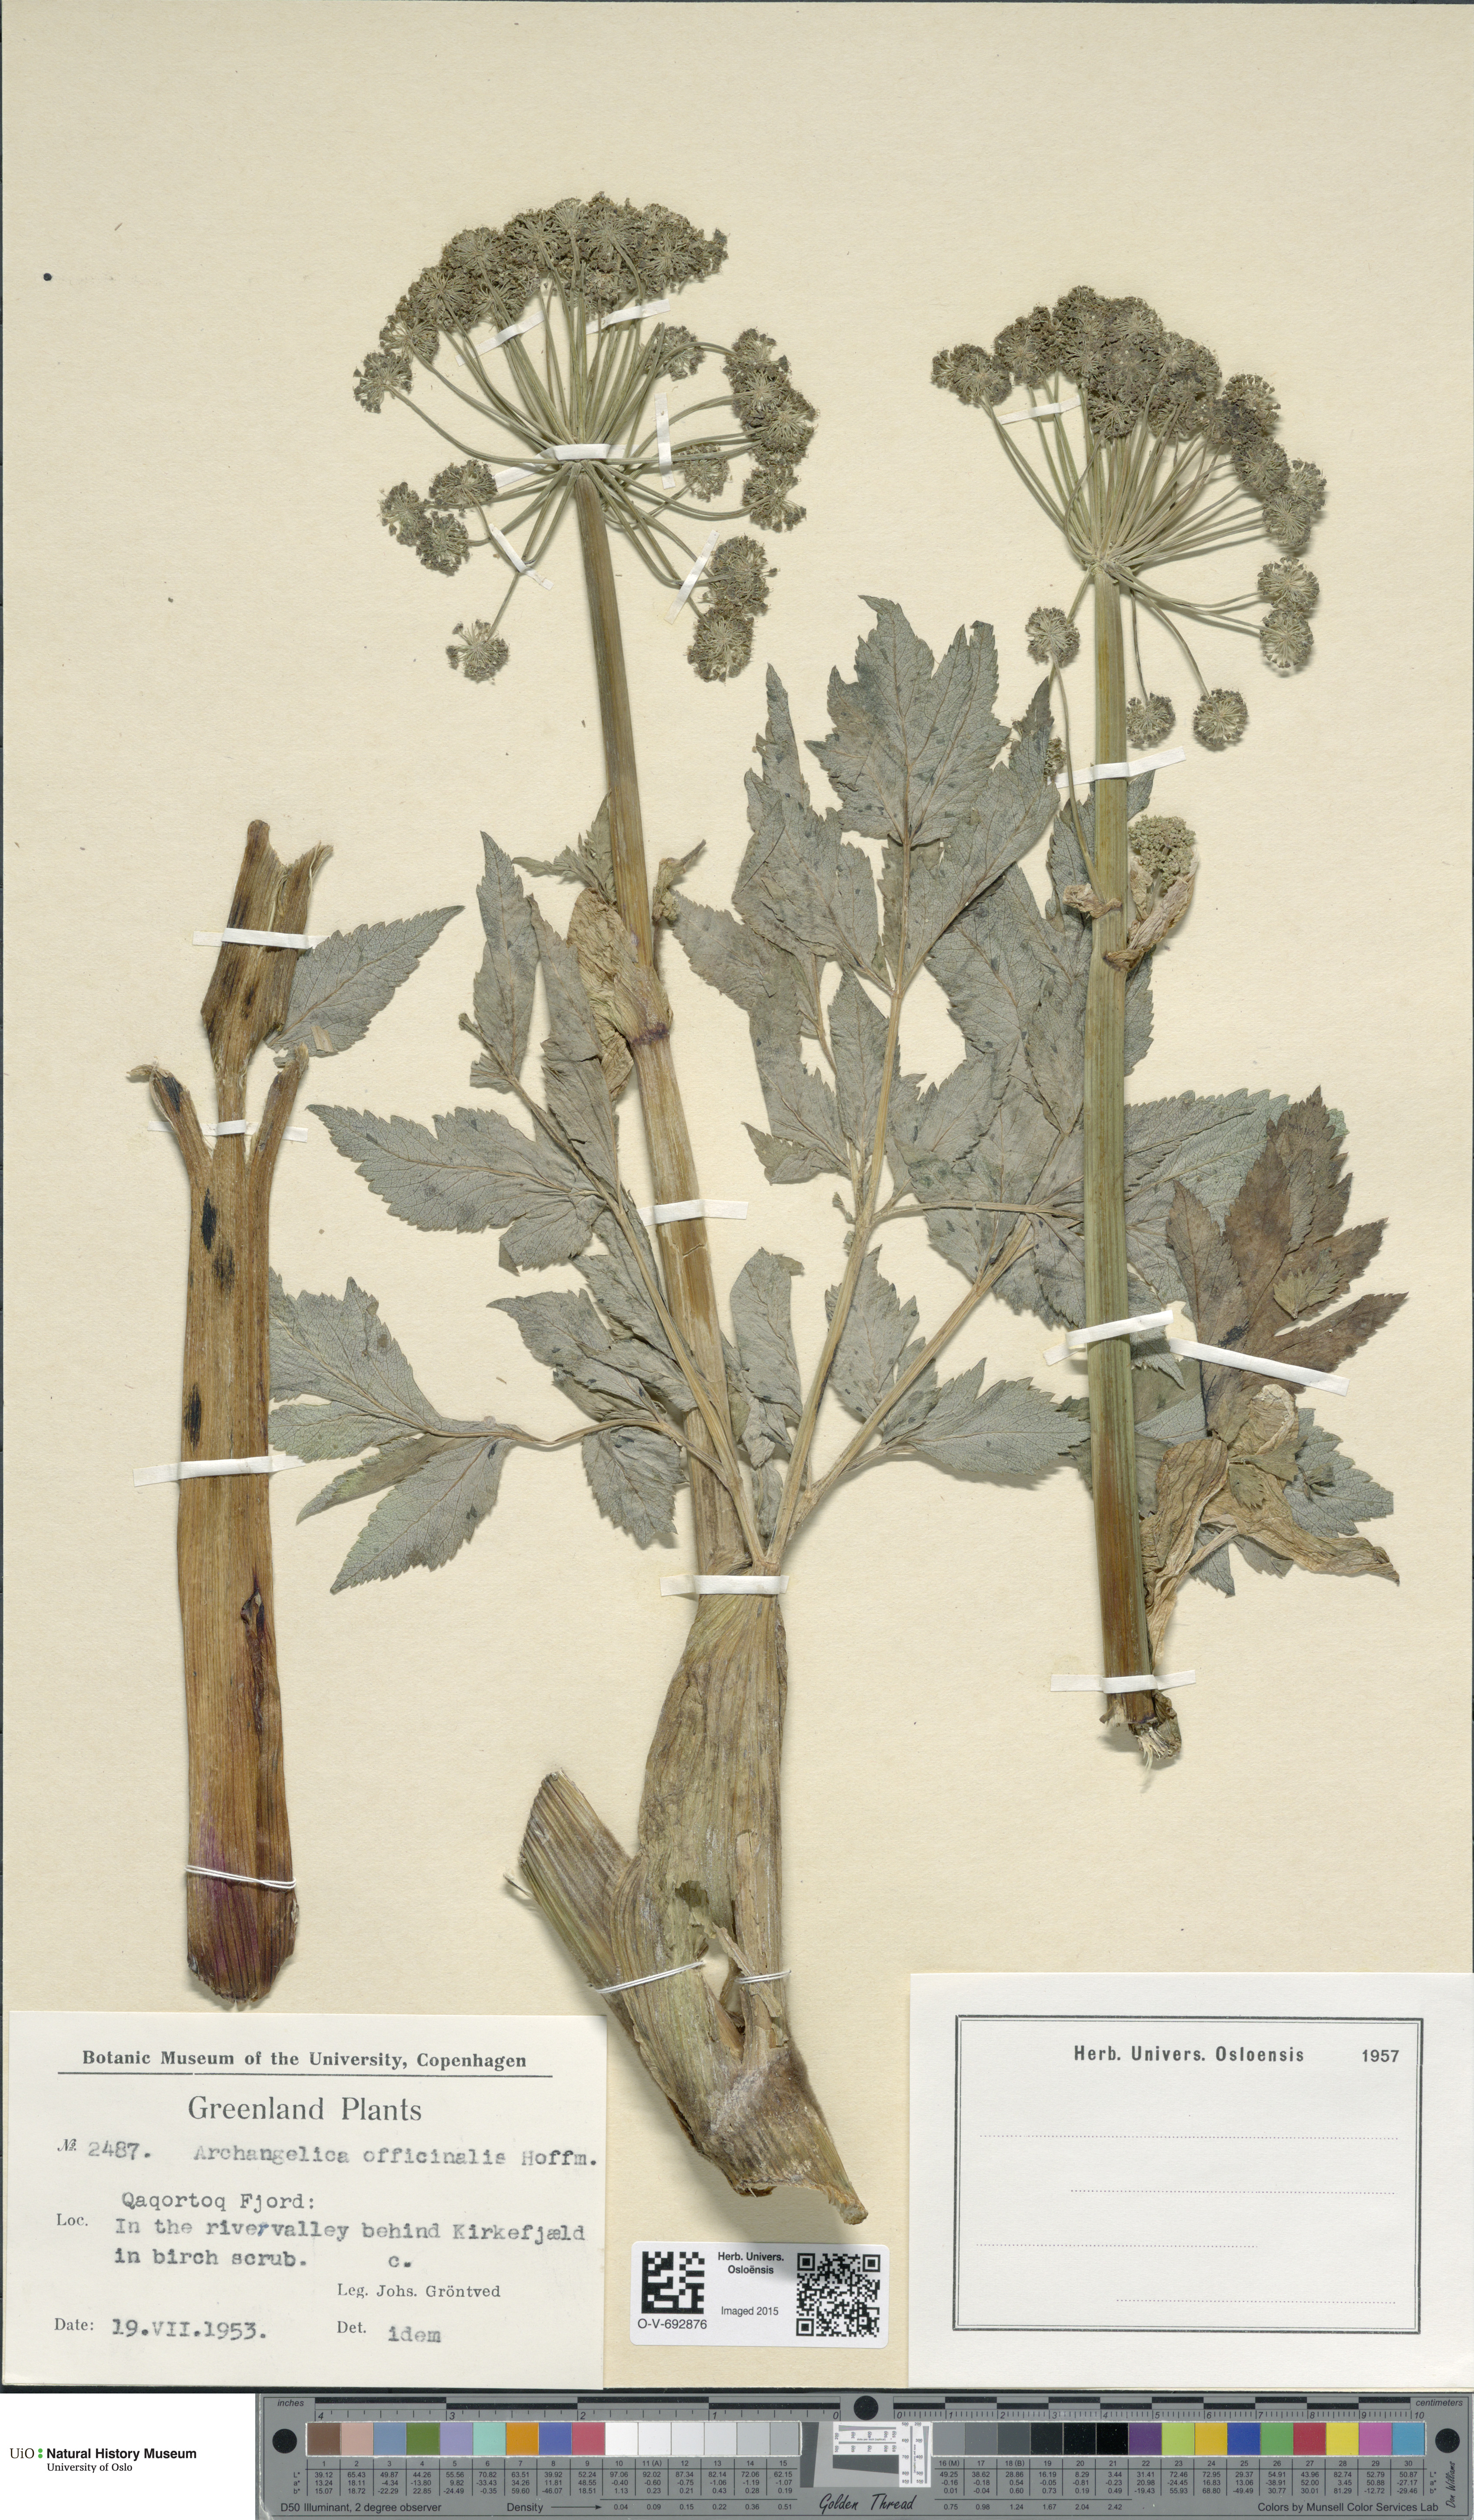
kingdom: Plantae
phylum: Tracheophyta
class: Magnoliopsida
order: Apiales
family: Apiaceae
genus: Angelica
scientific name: Angelica archangelica
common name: Garden angelica
